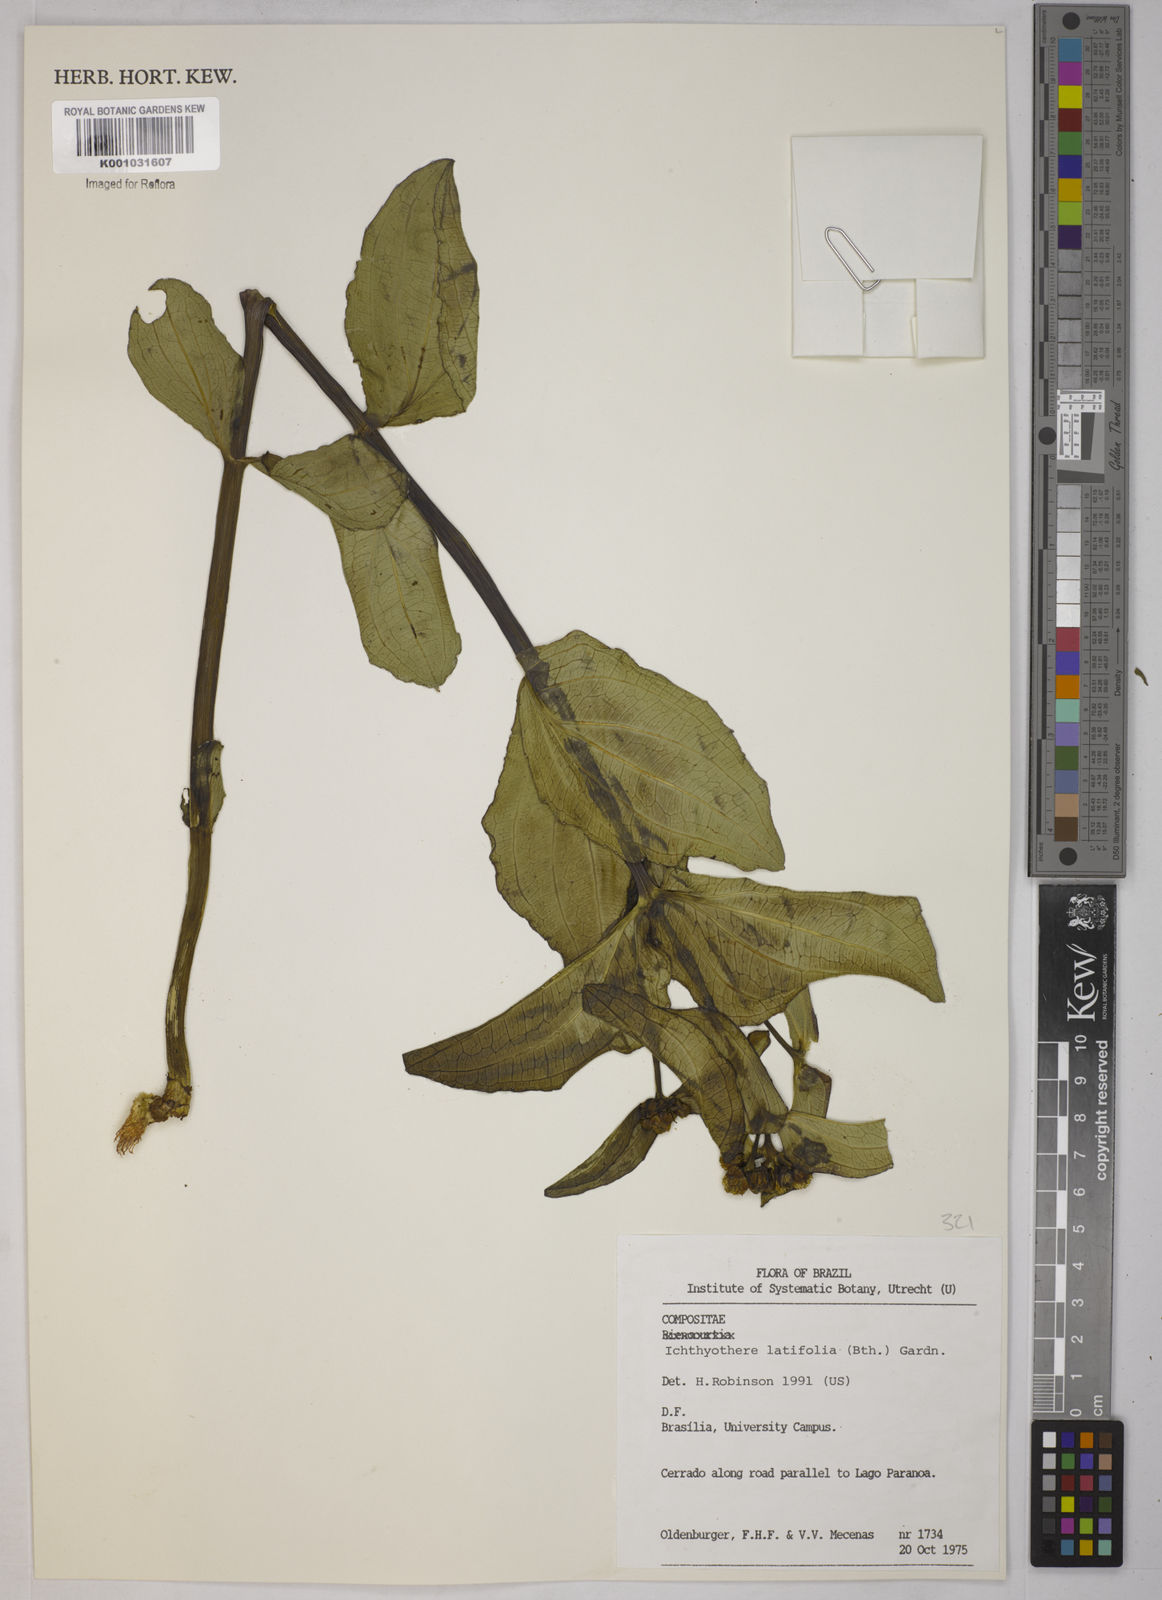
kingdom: Plantae
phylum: Tracheophyta
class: Magnoliopsida
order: Asterales
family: Asteraceae
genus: Ichthyothere
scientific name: Ichthyothere latifolia
